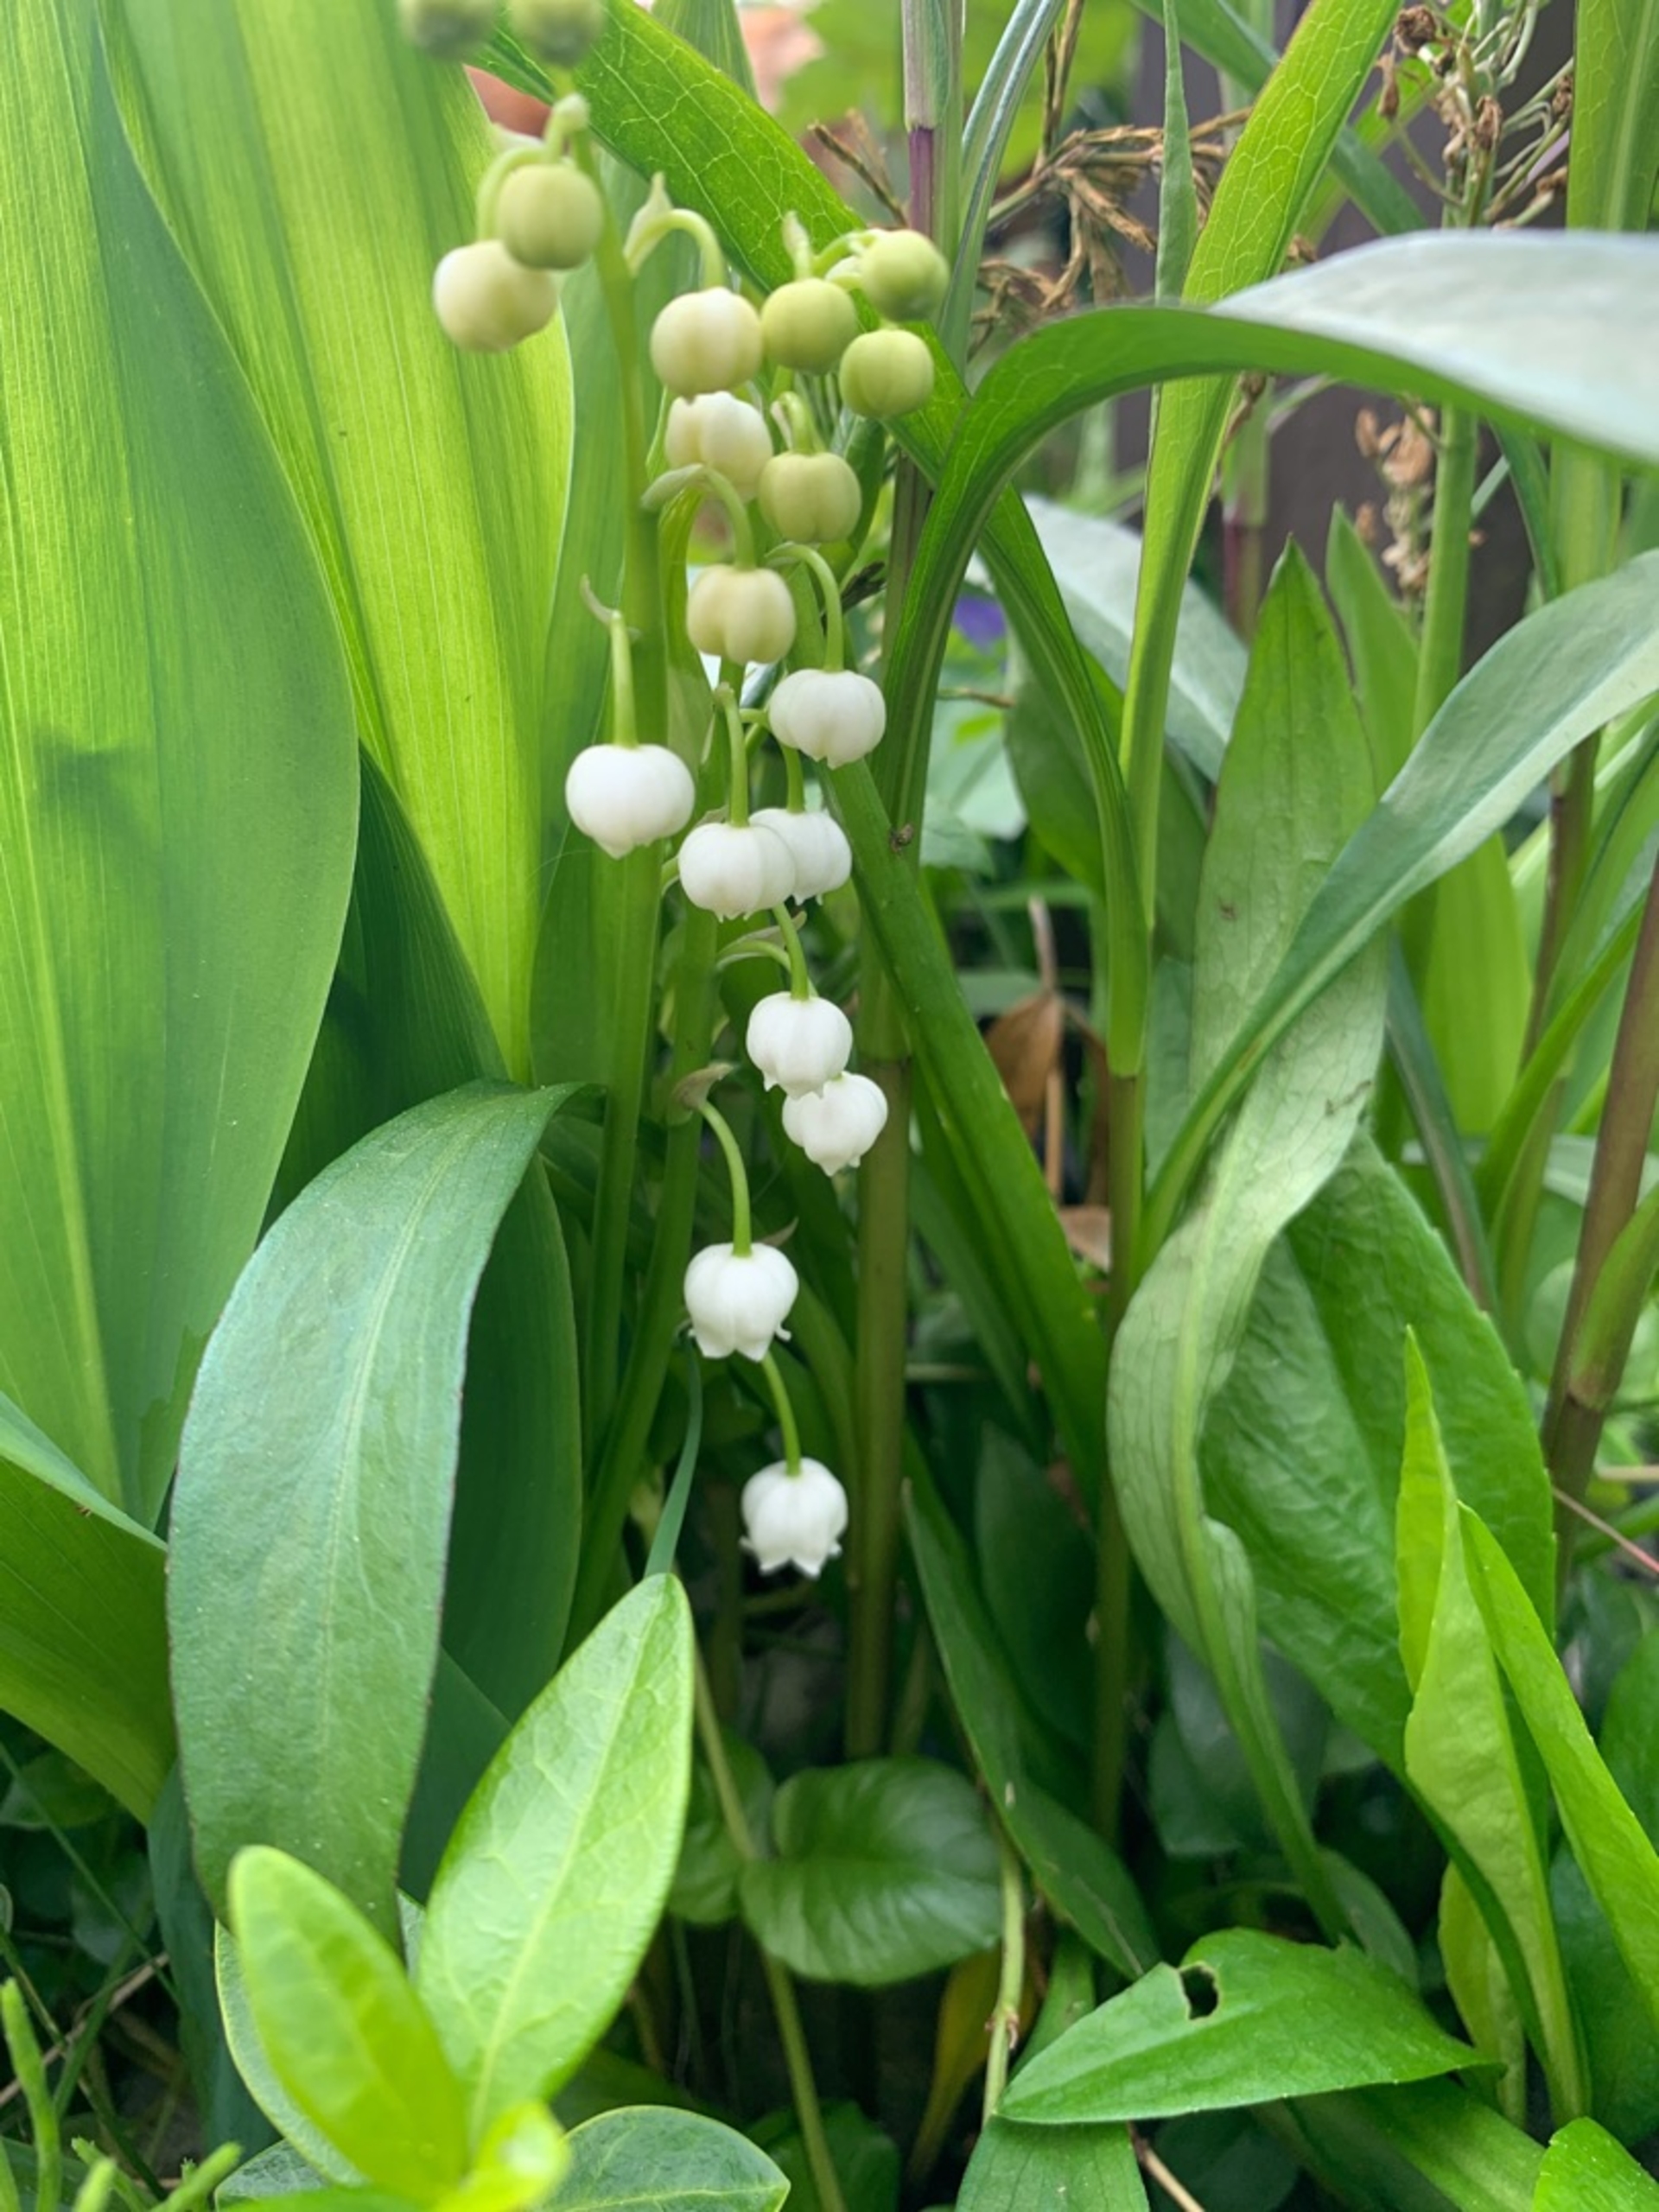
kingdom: Plantae
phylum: Tracheophyta
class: Liliopsida
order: Asparagales
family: Asparagaceae
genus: Convallaria
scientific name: Convallaria majalis
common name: Liljekonval
